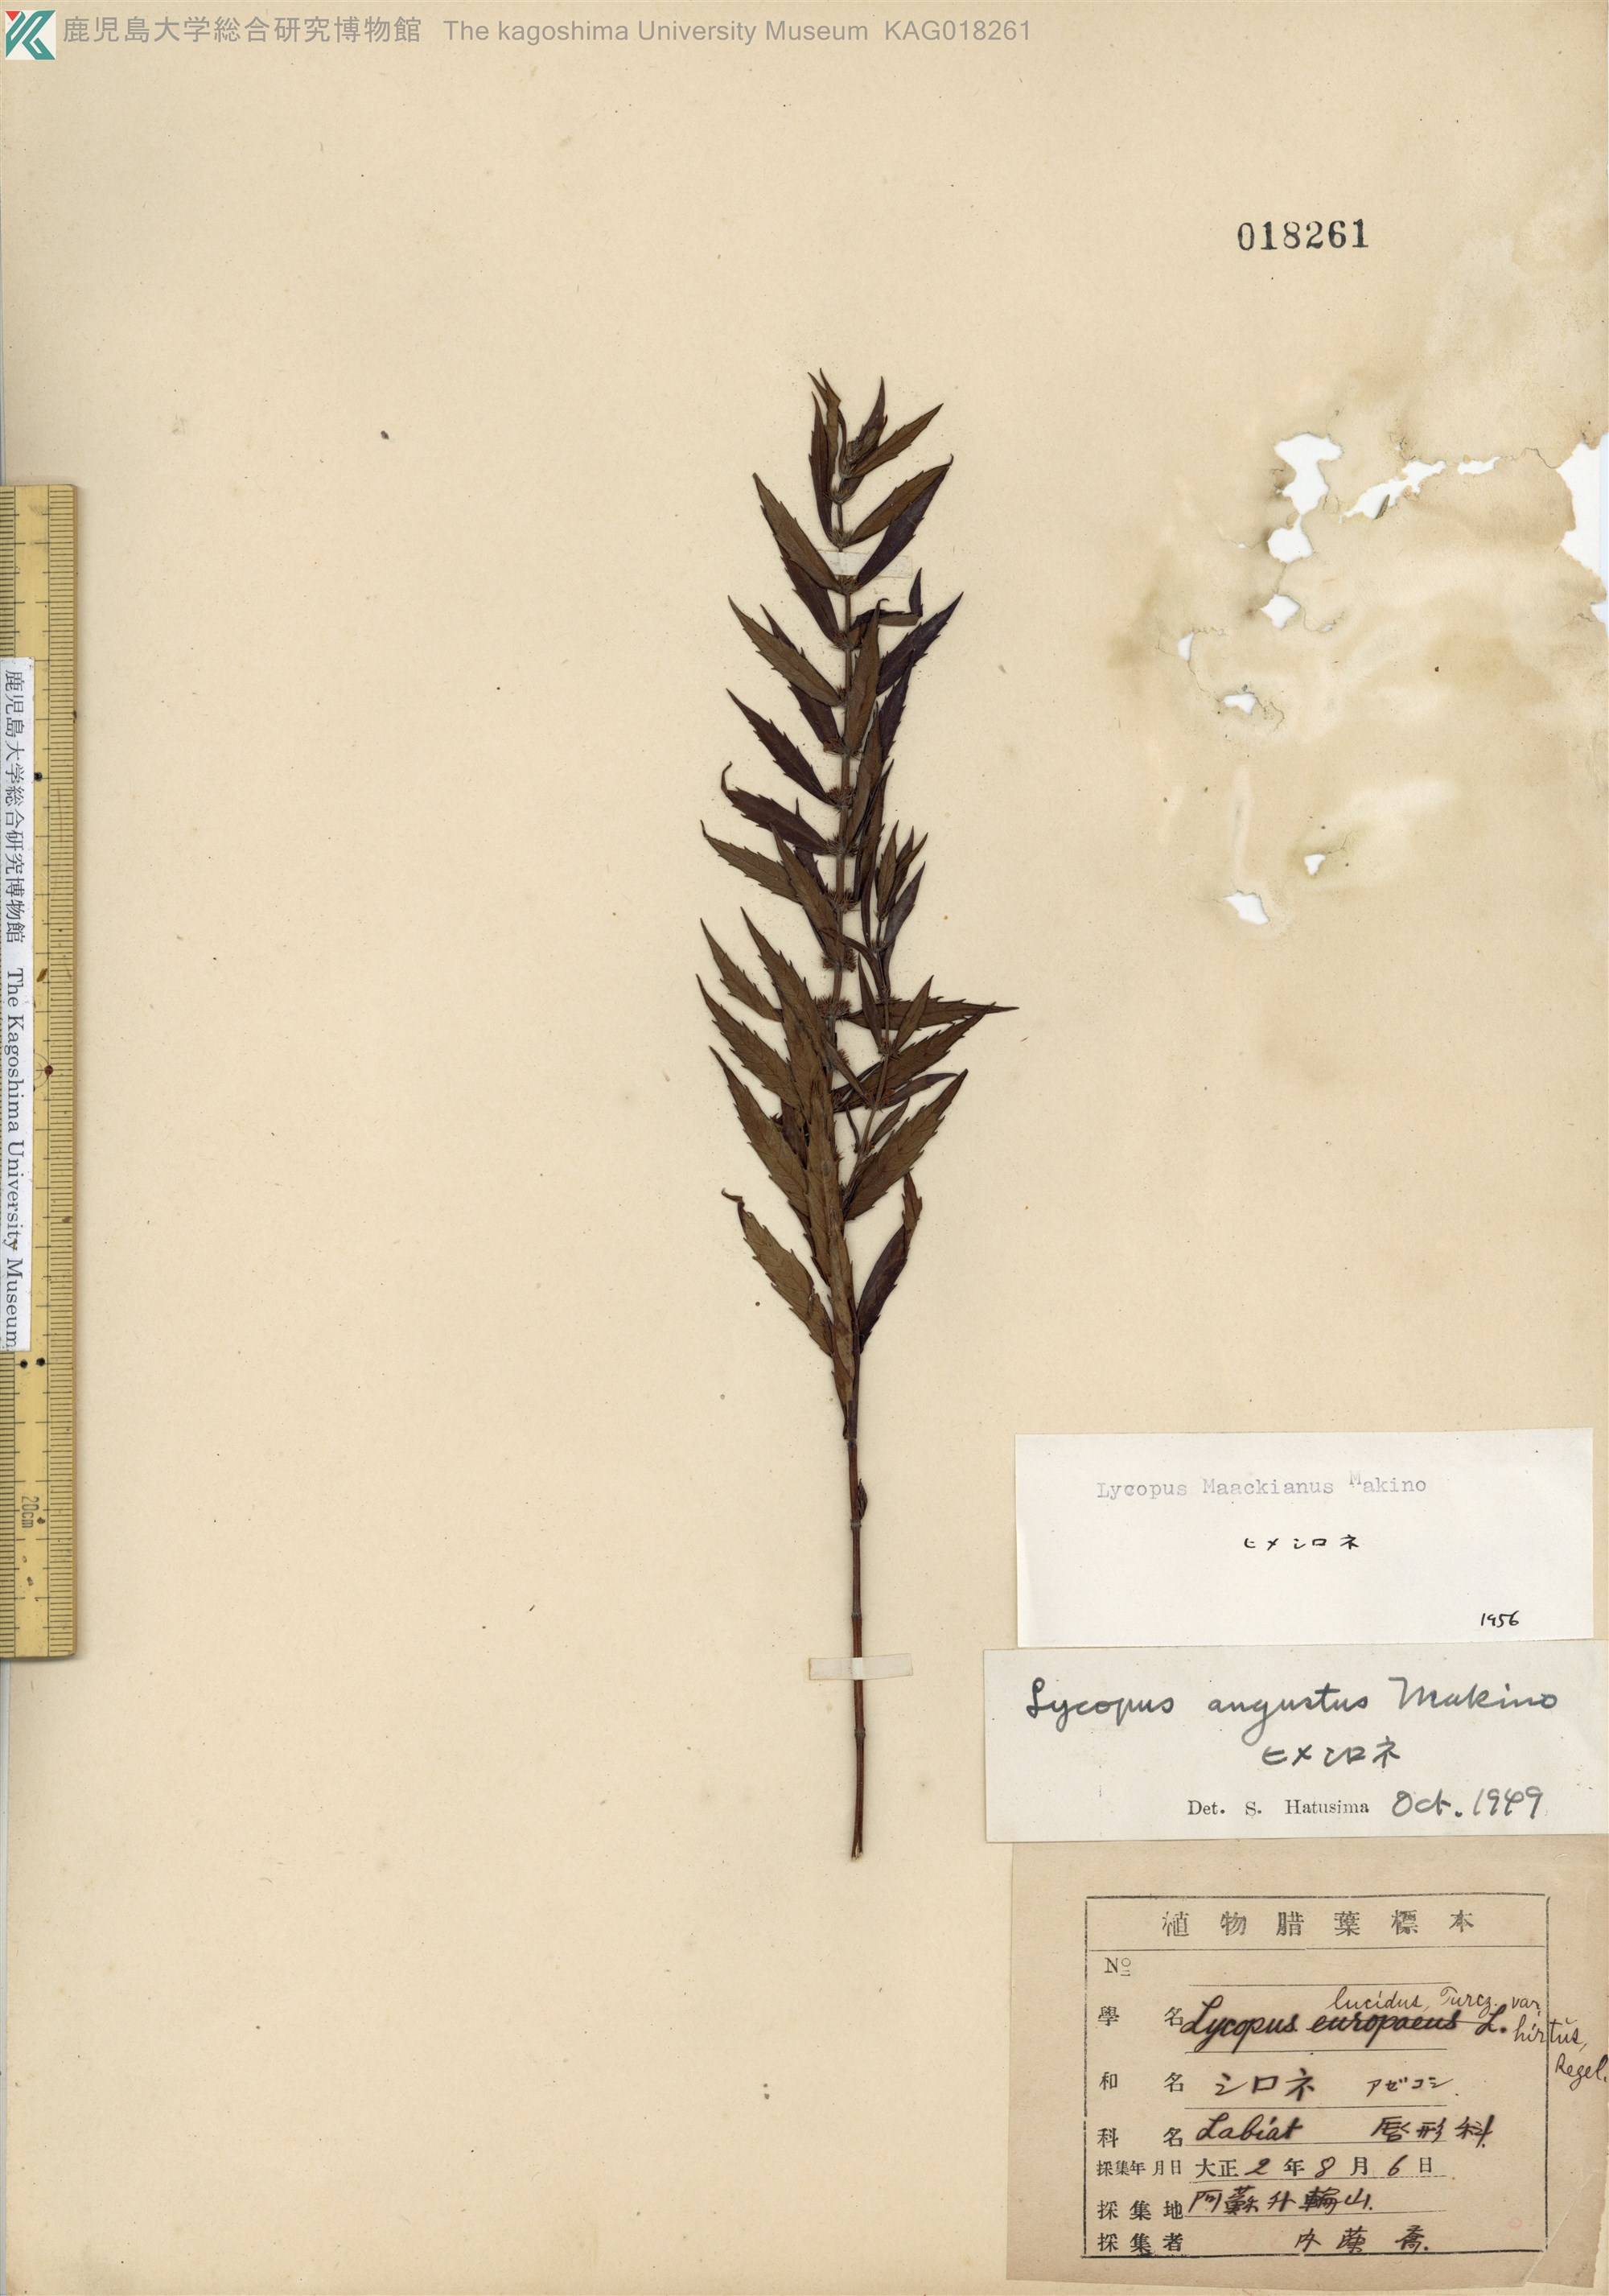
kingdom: Plantae
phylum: Tracheophyta
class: Magnoliopsida
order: Lamiales
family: Lamiaceae
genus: Lycopus
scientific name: Lycopus lucidus
